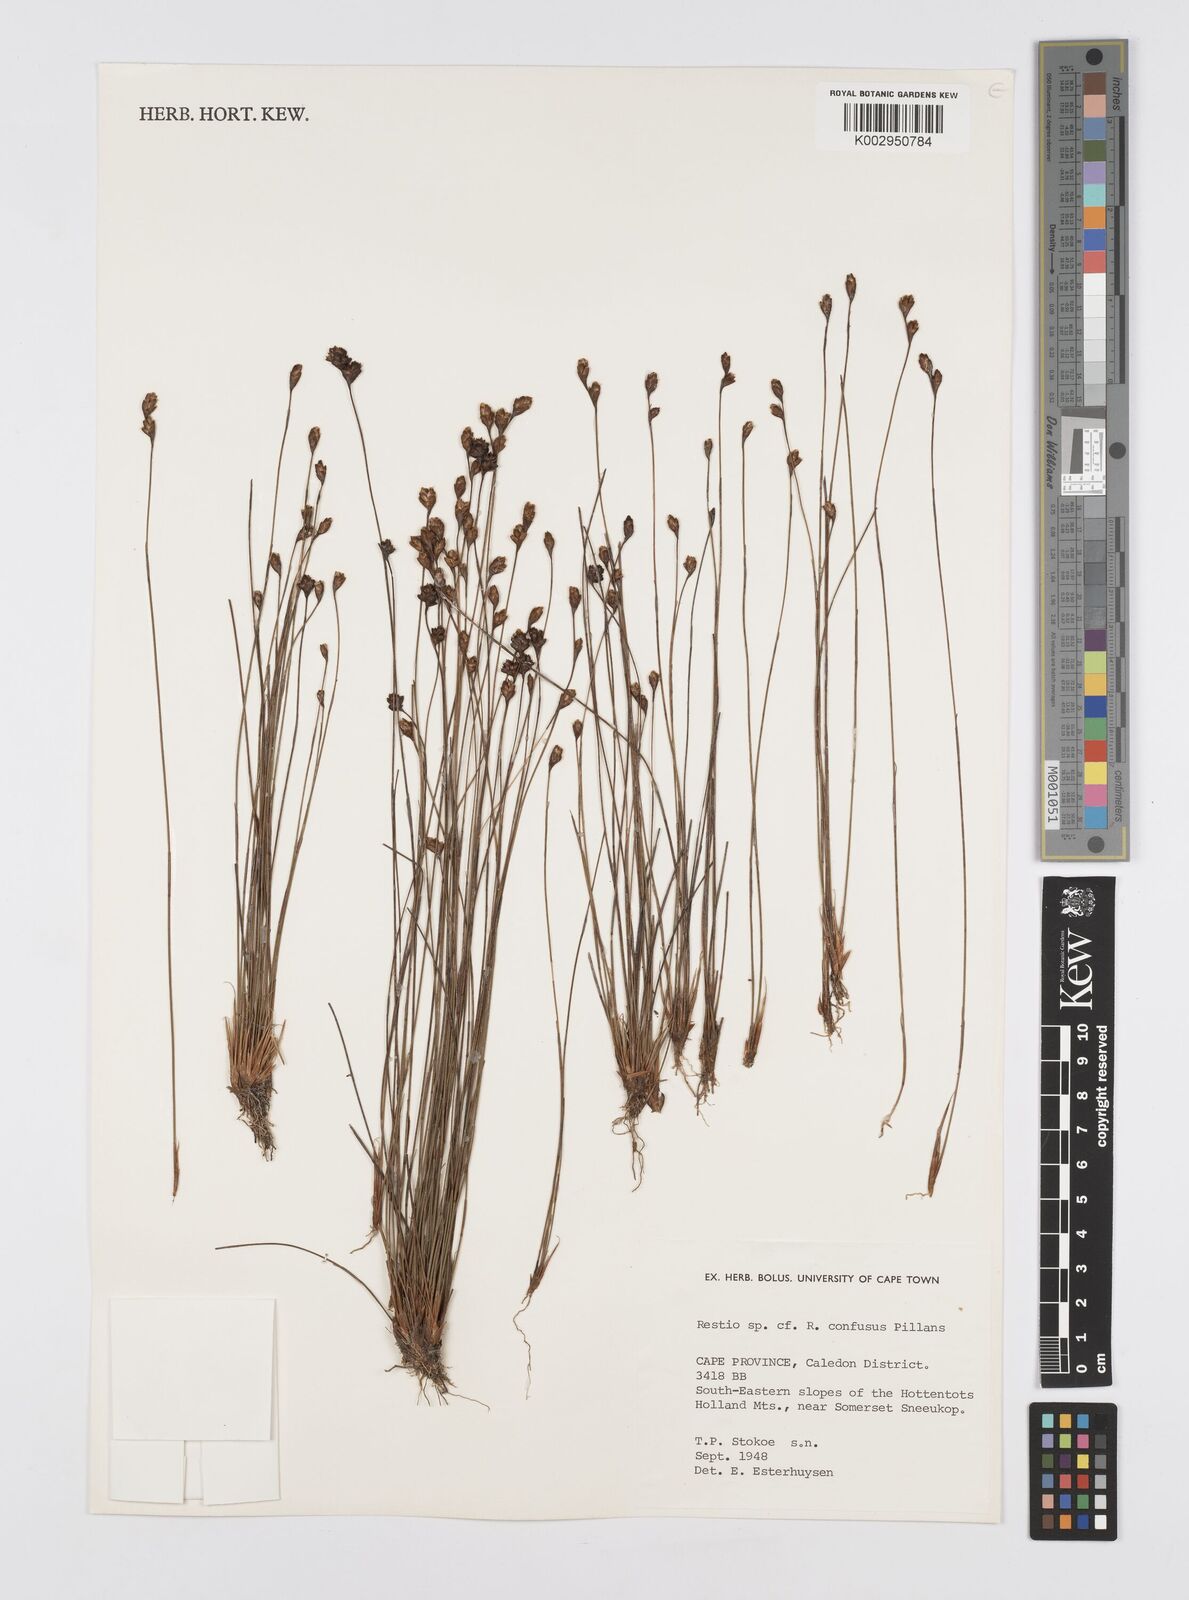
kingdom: Plantae
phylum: Tracheophyta
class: Liliopsida
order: Poales
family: Restionaceae
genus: Restio
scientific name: Restio confusus
